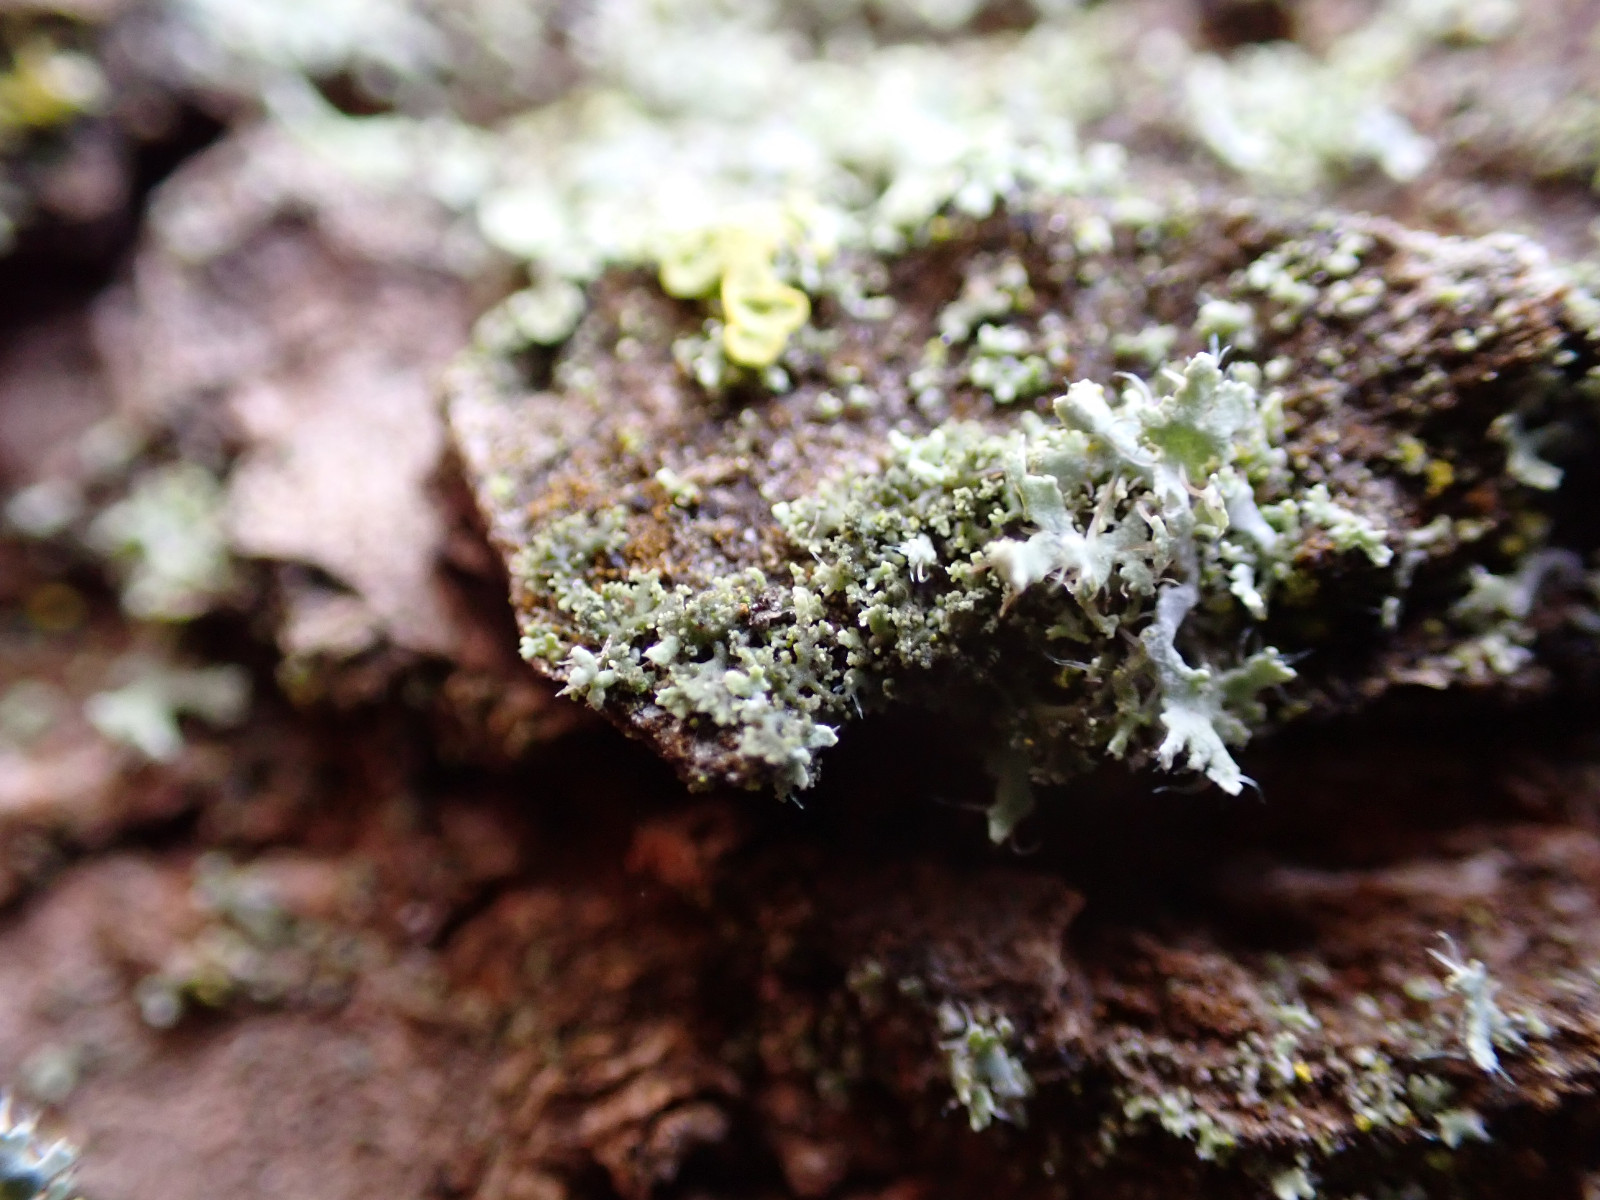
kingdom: Fungi
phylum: Ascomycota
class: Lecanoromycetes
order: Caliciales
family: Physciaceae
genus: Physciella
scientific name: Physciella nigricans
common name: sortagtig rosetlav
